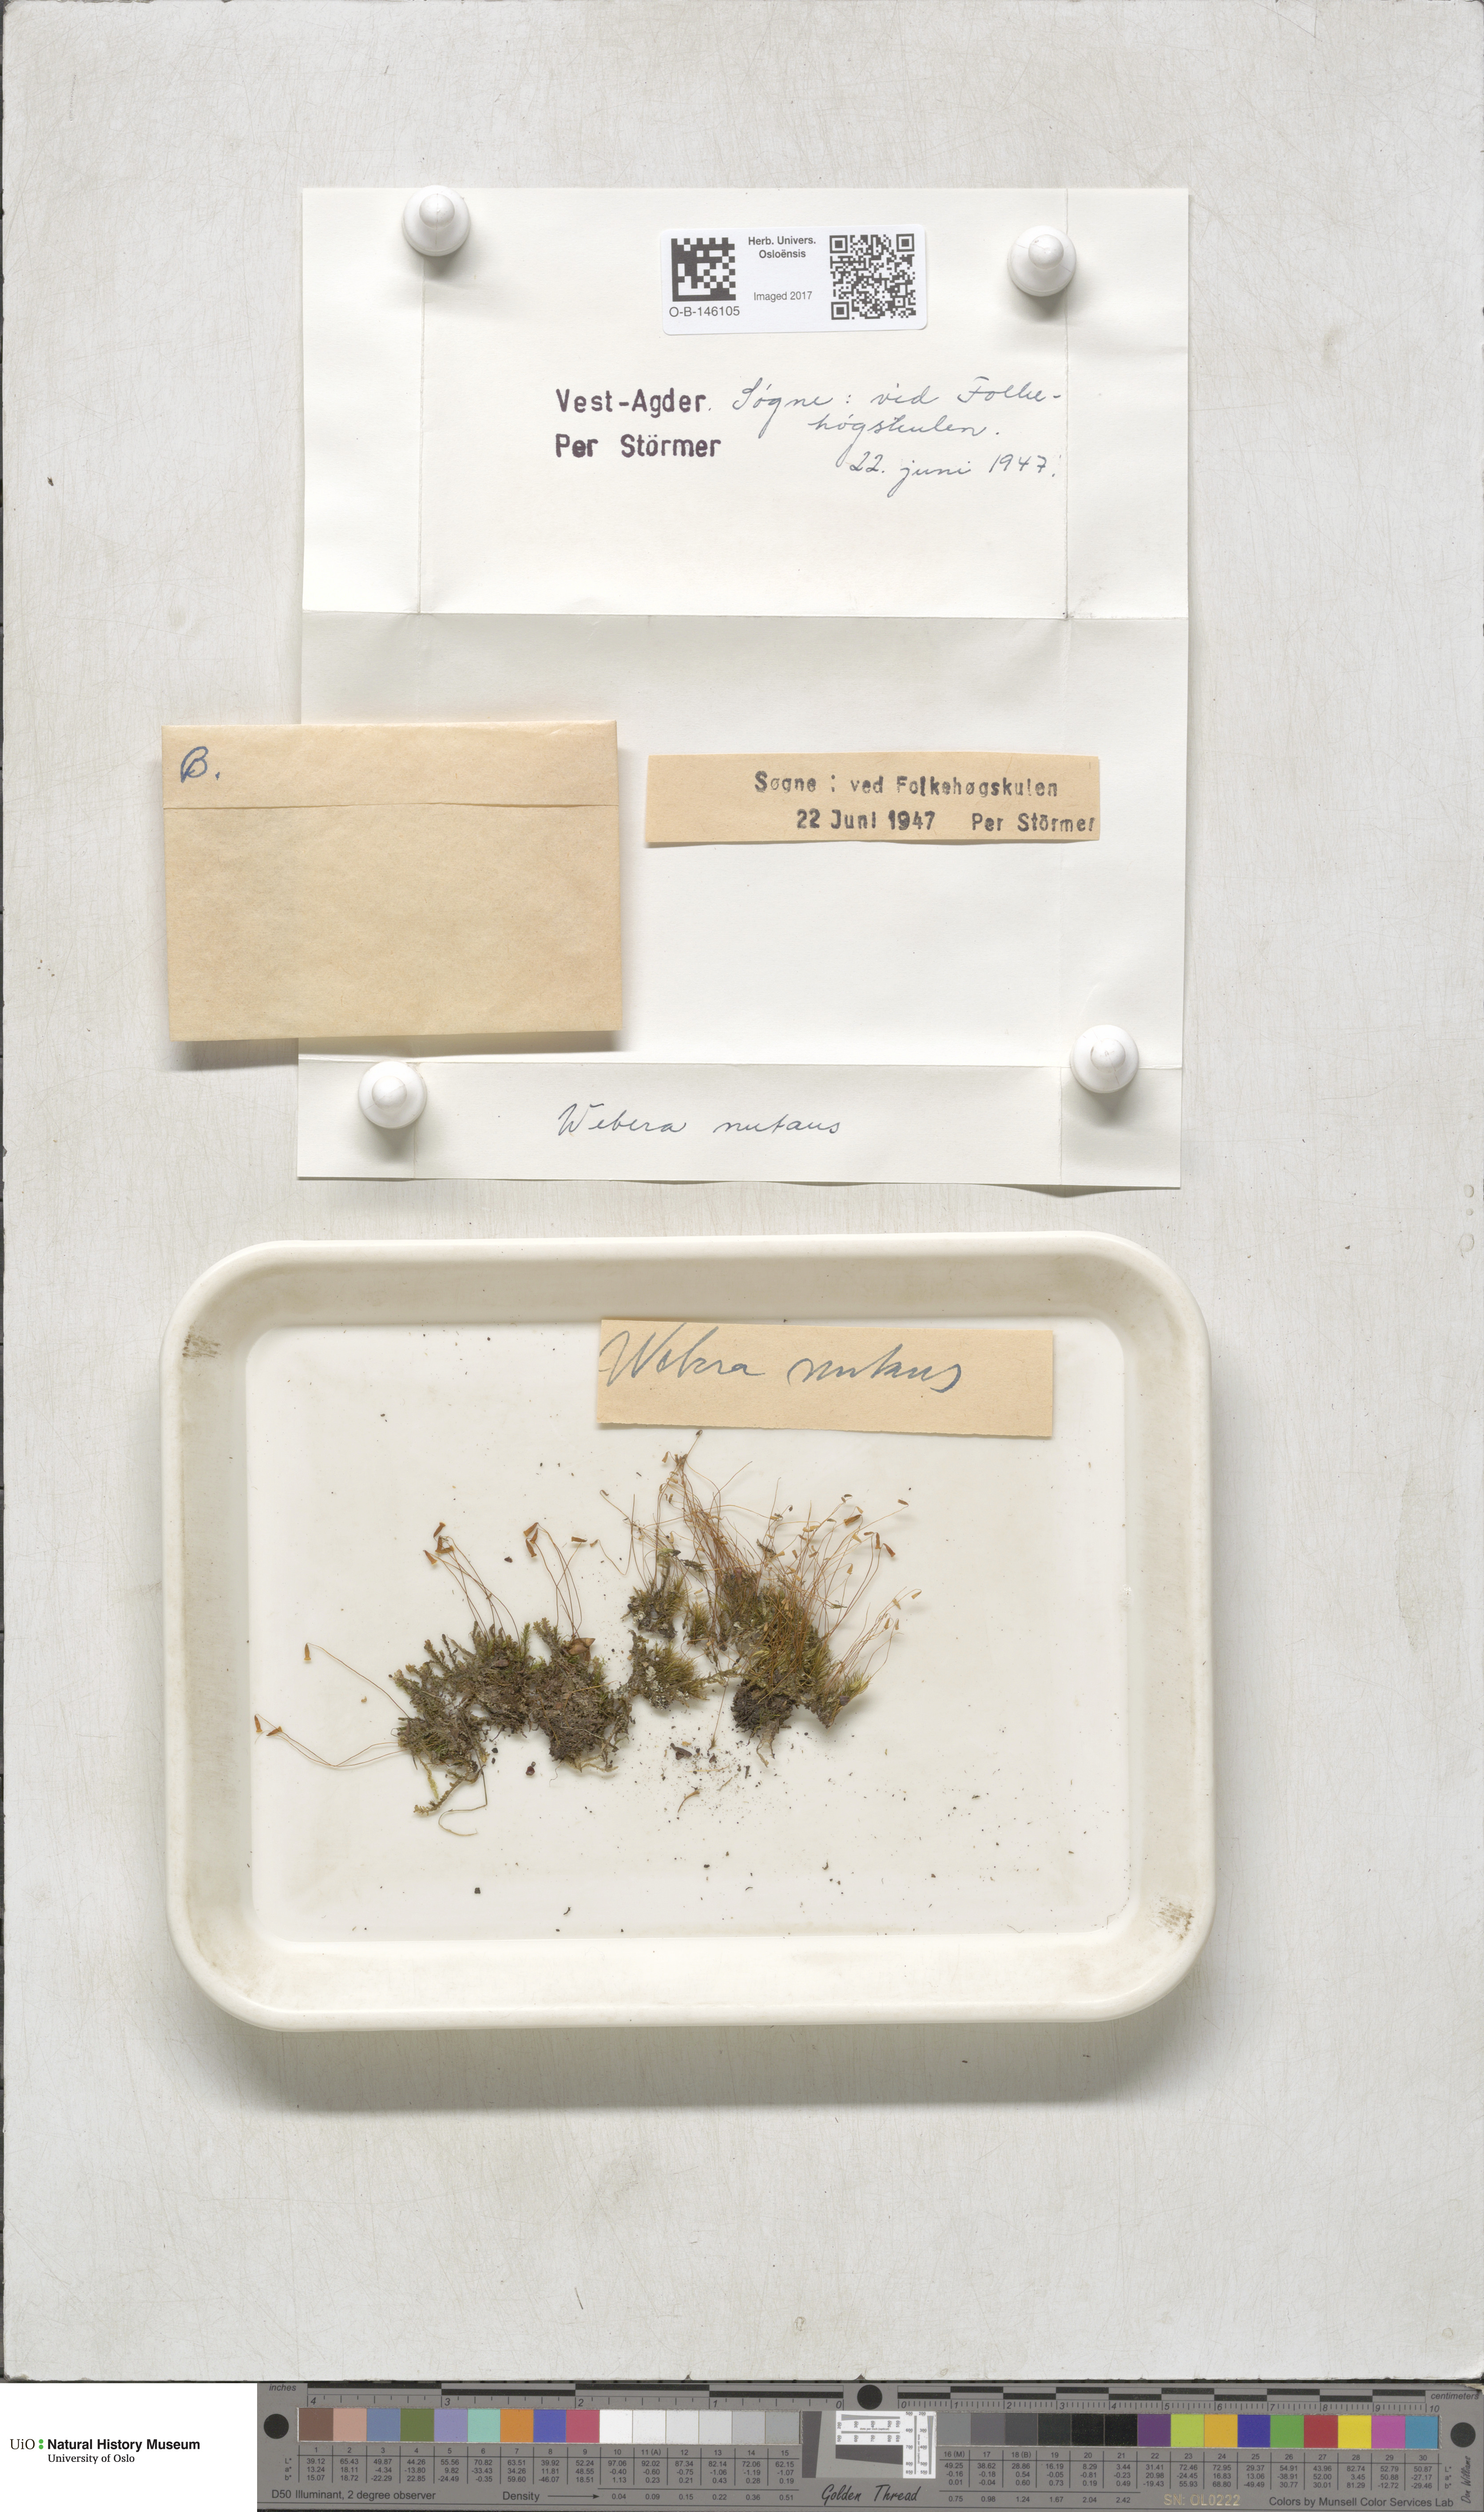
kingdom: Plantae
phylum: Bryophyta
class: Bryopsida
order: Bryales
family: Mniaceae
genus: Pohlia
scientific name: Pohlia nutans
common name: Nodding thread-moss
